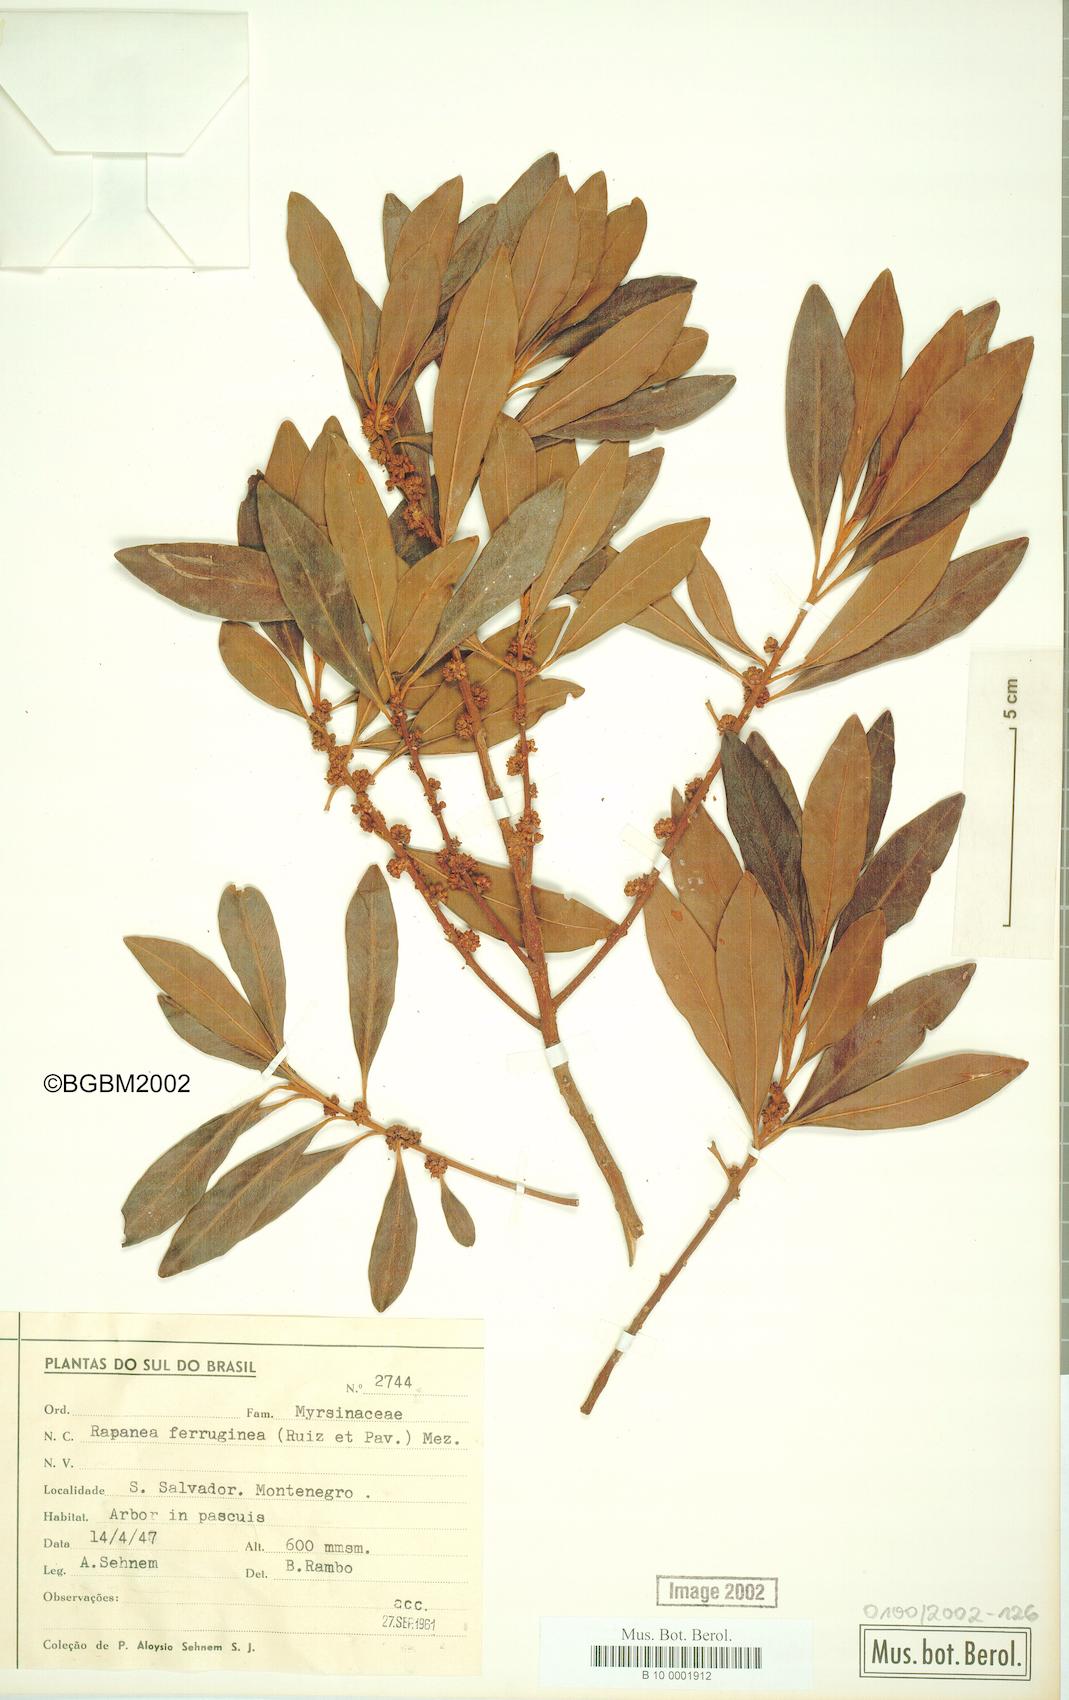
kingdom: Plantae
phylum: Tracheophyta
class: Magnoliopsida
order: Ericales
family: Primulaceae
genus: Myrsine
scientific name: Myrsine coriacea
